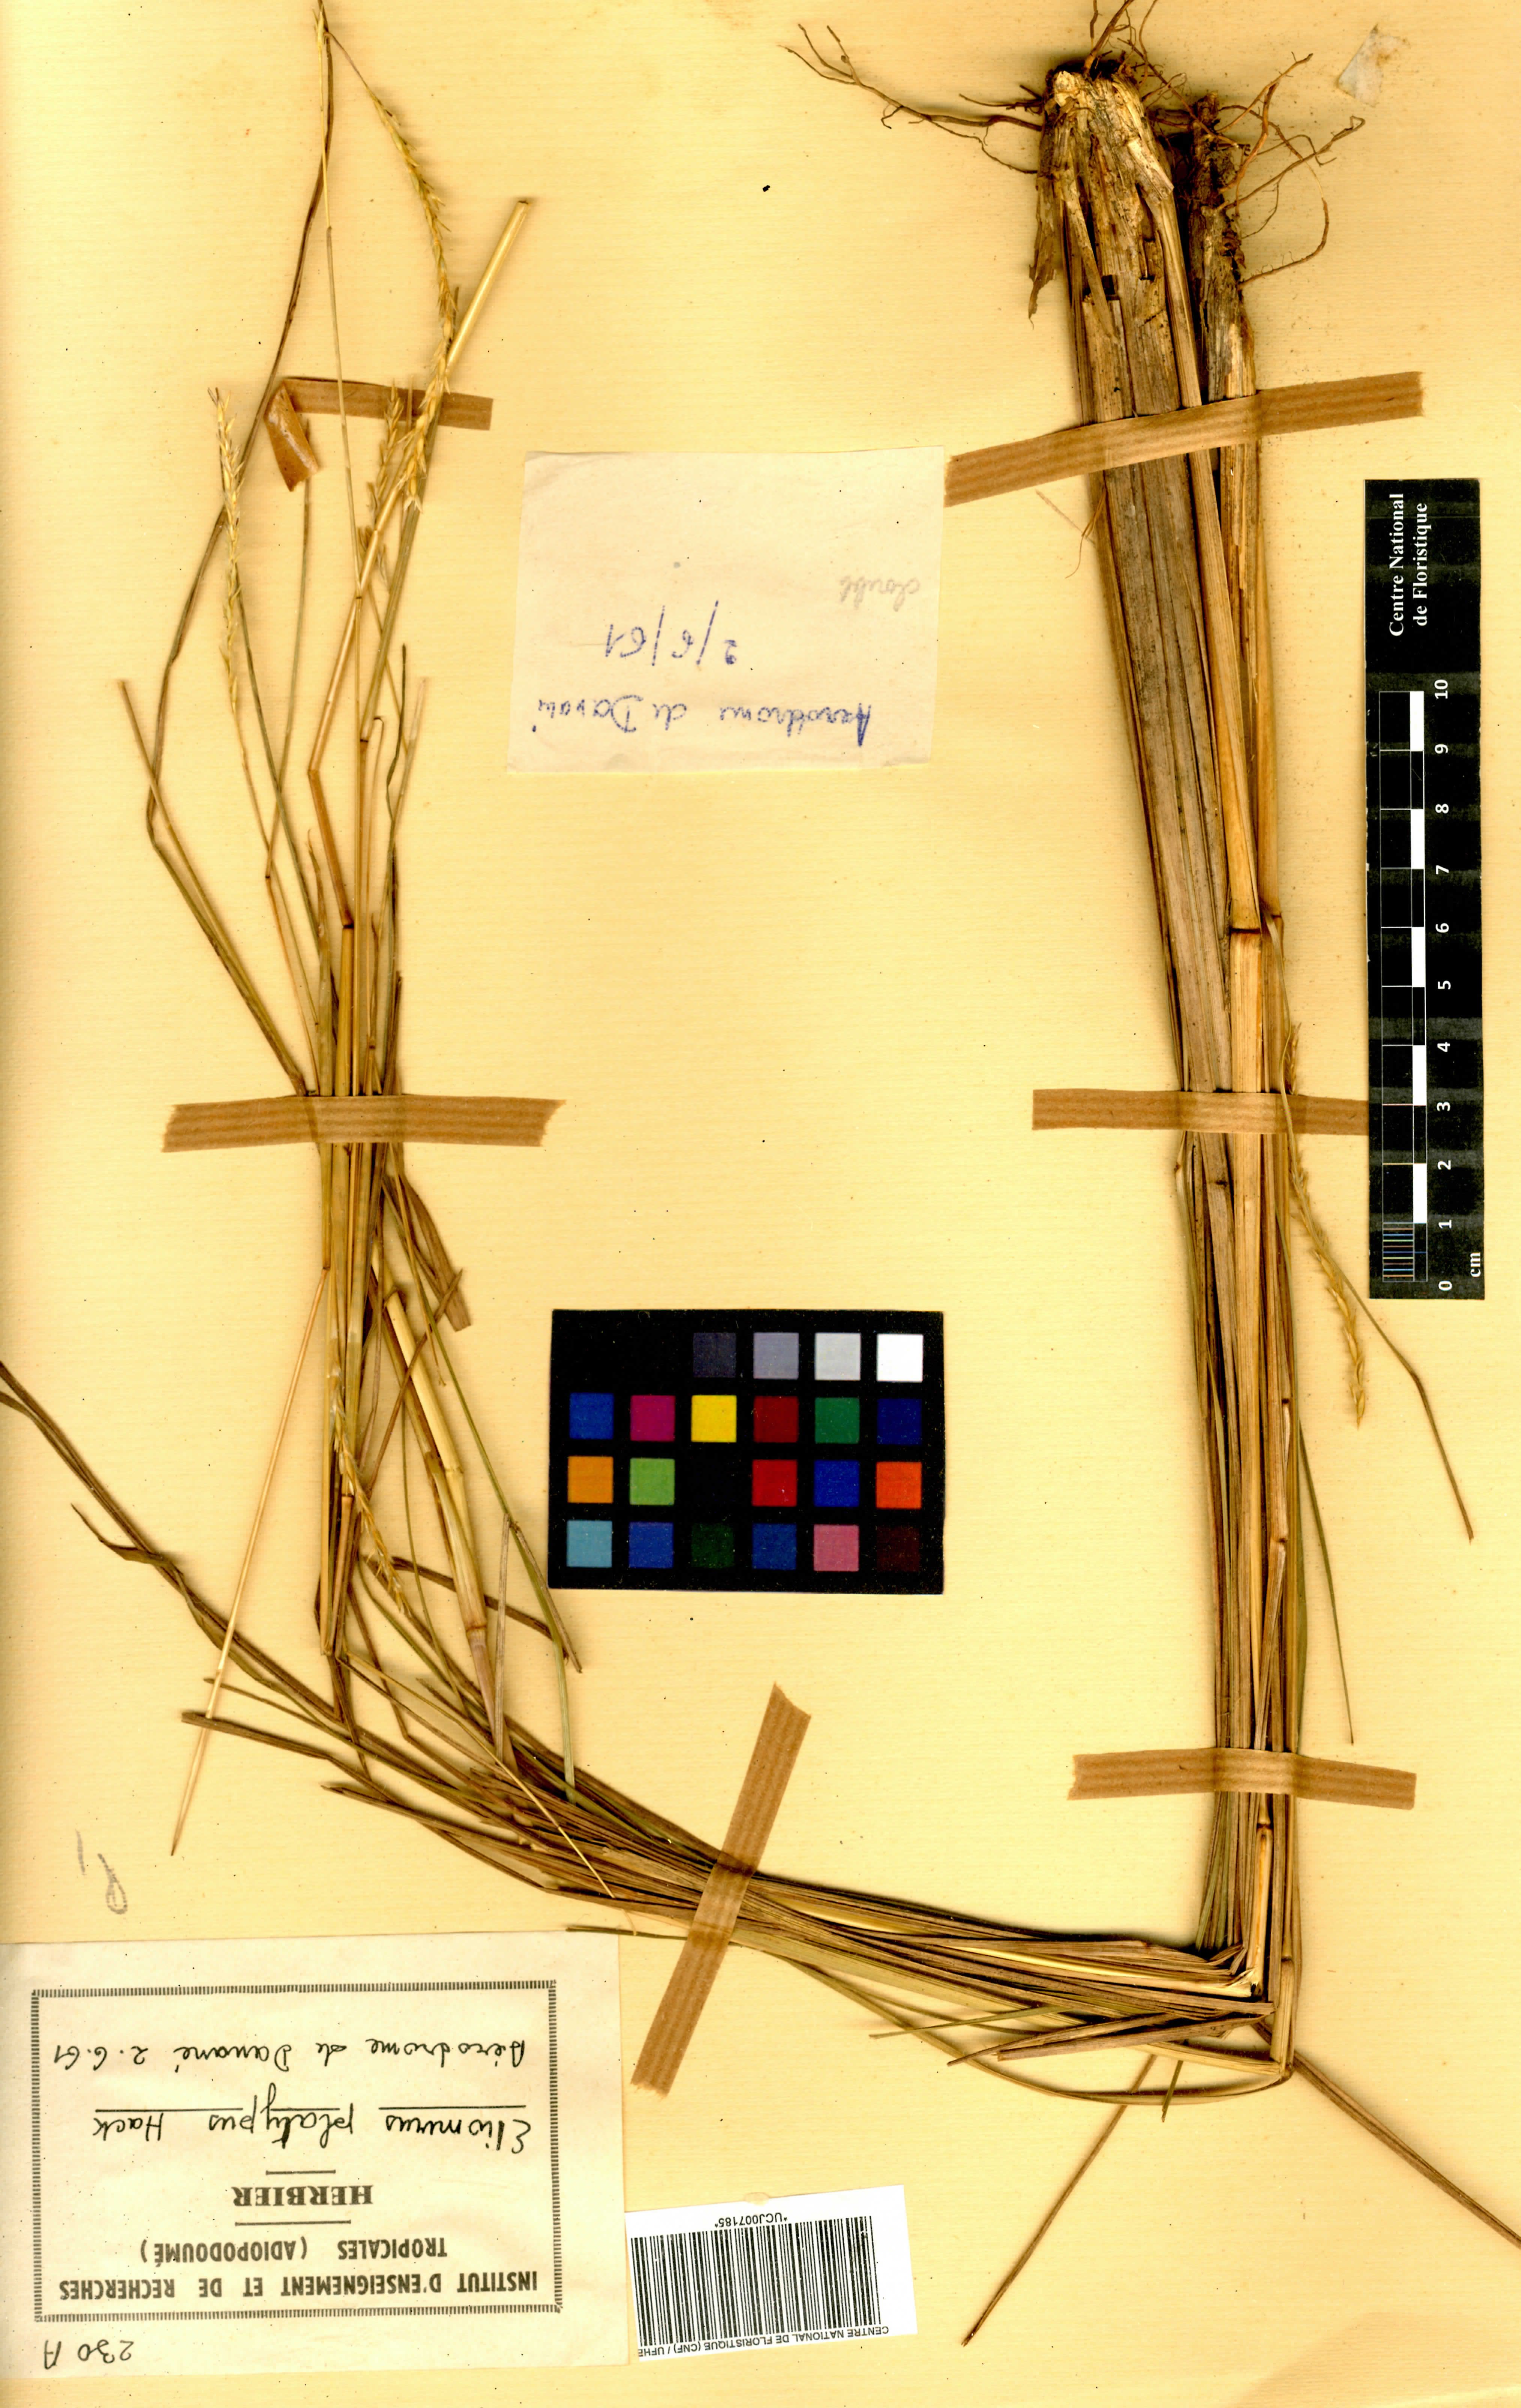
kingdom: Plantae
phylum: Tracheophyta
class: Liliopsida
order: Poales
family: Poaceae
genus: Elionurus
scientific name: Elionurus platypus
